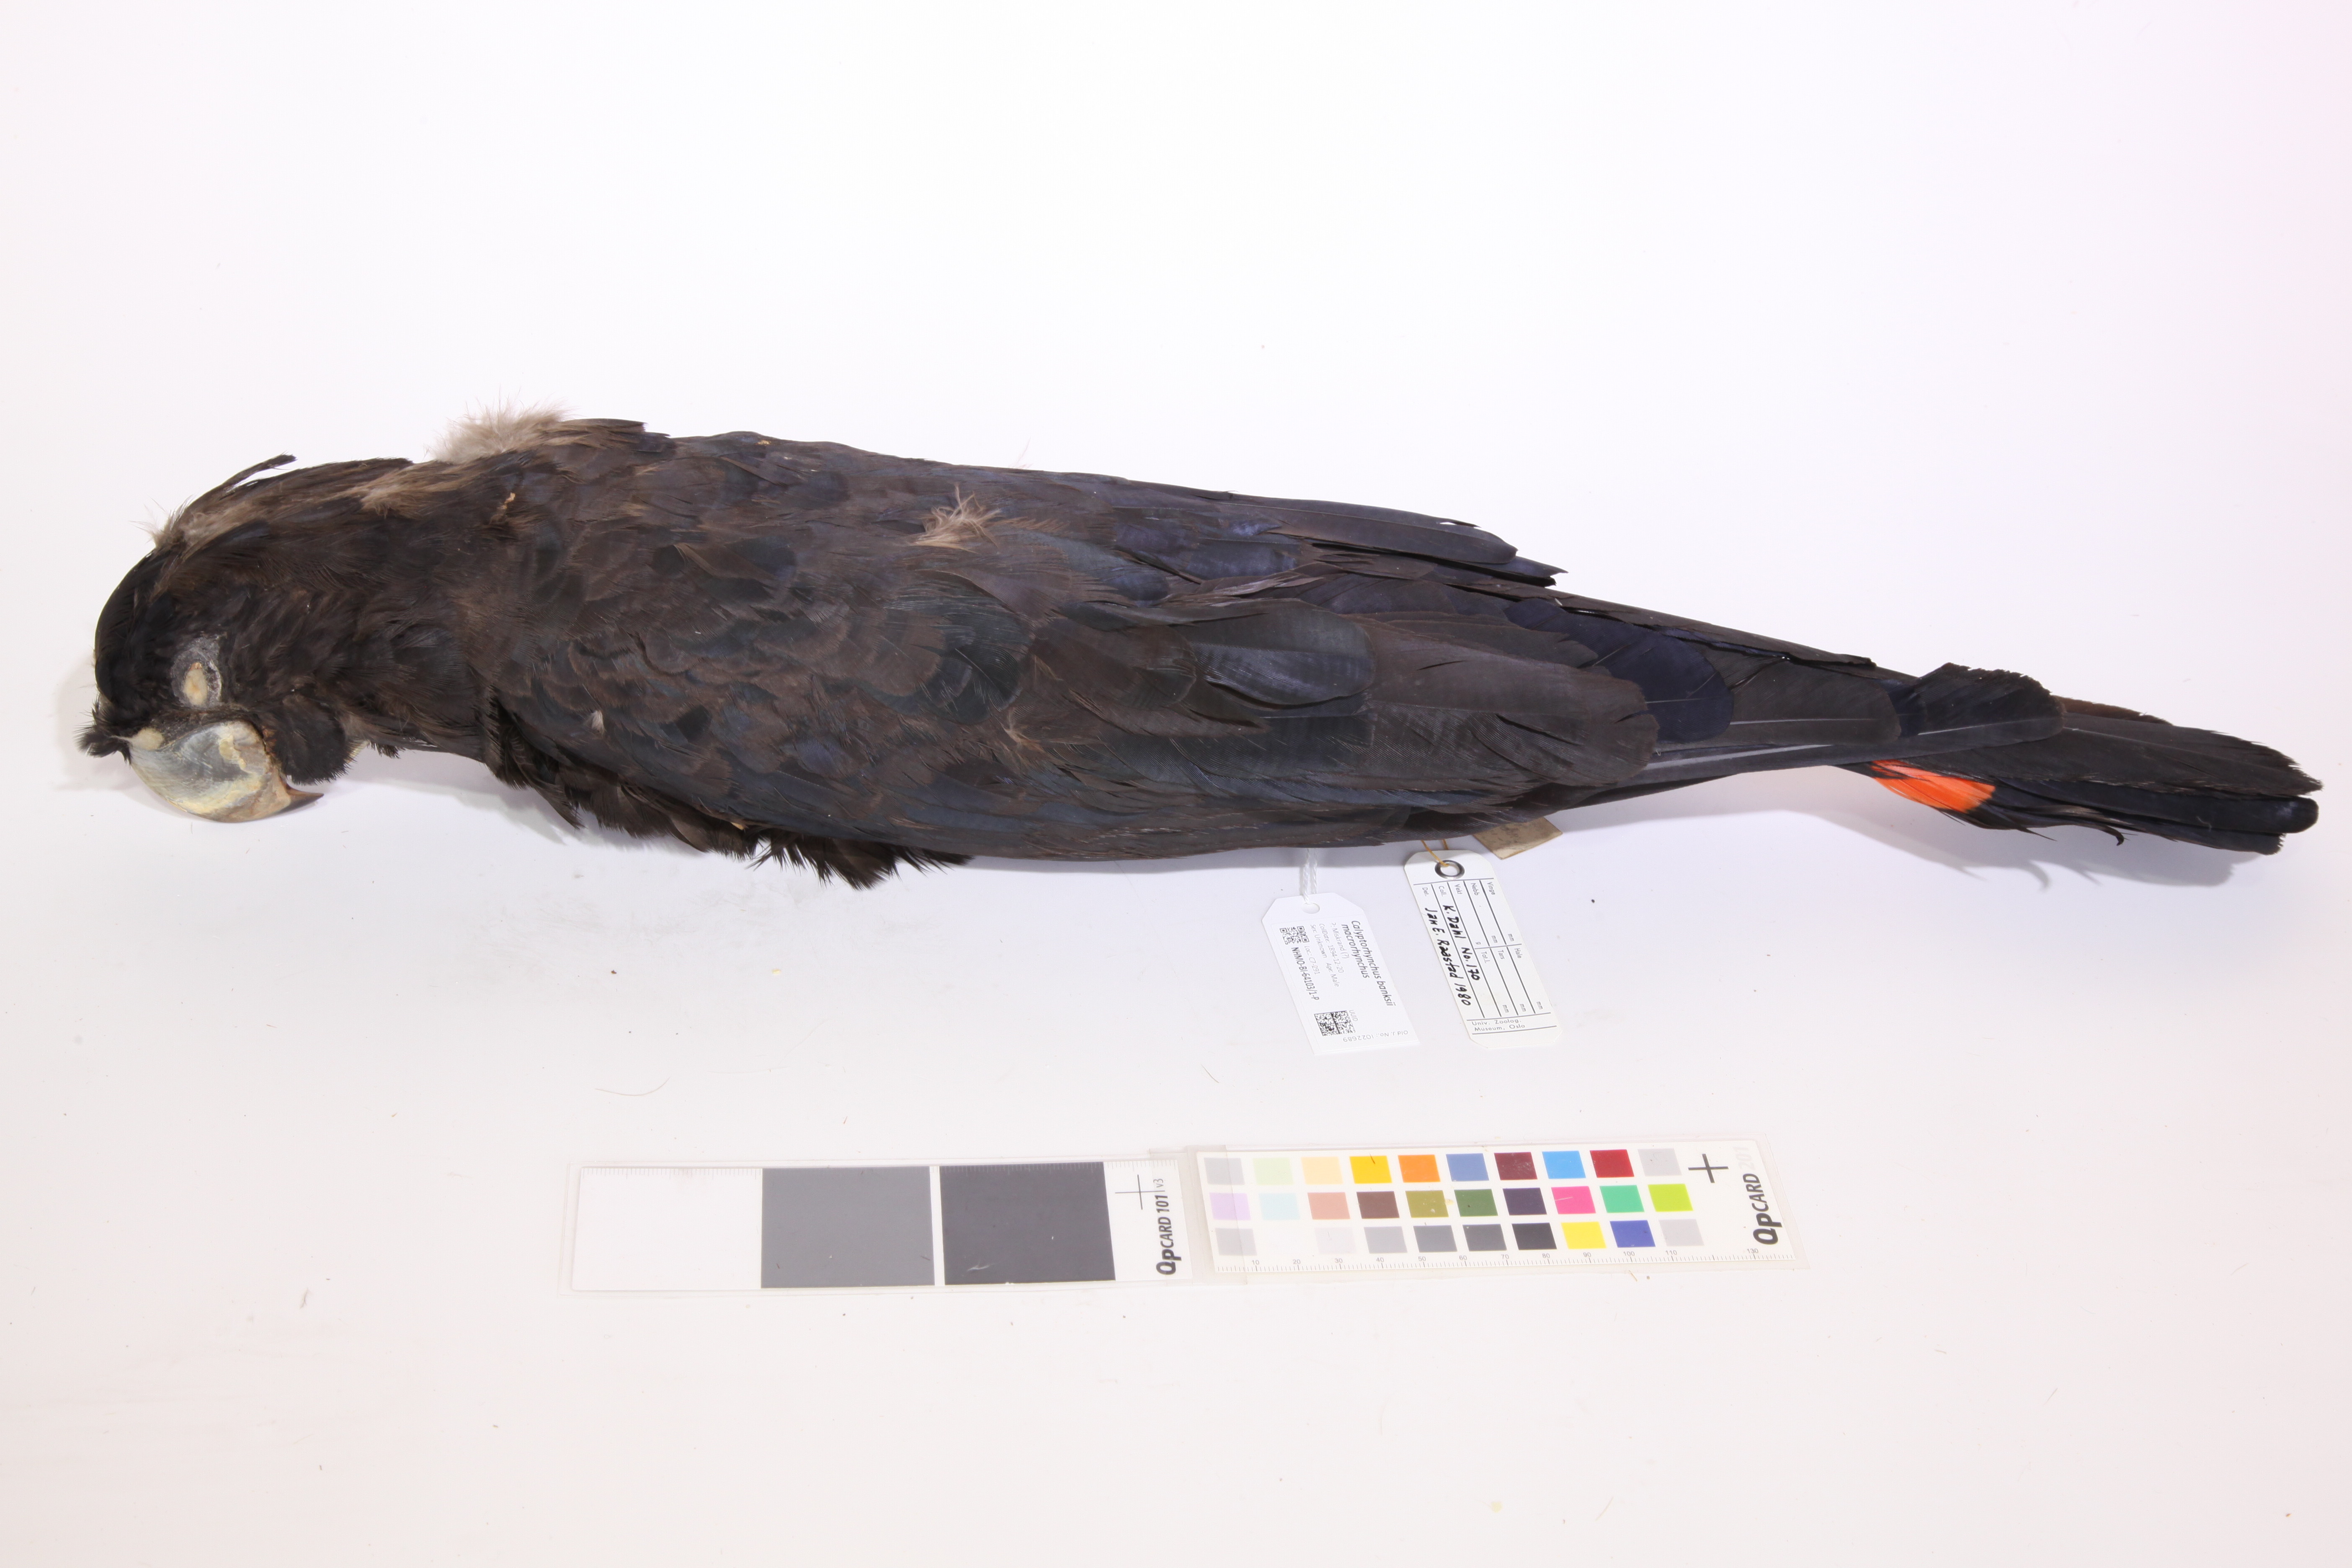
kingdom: Animalia
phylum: Chordata
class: Aves
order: Psittaciformes
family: Psittacidae
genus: Calyptorhynchus
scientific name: Calyptorhynchus banksii
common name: Red-tailed black cockatoo
